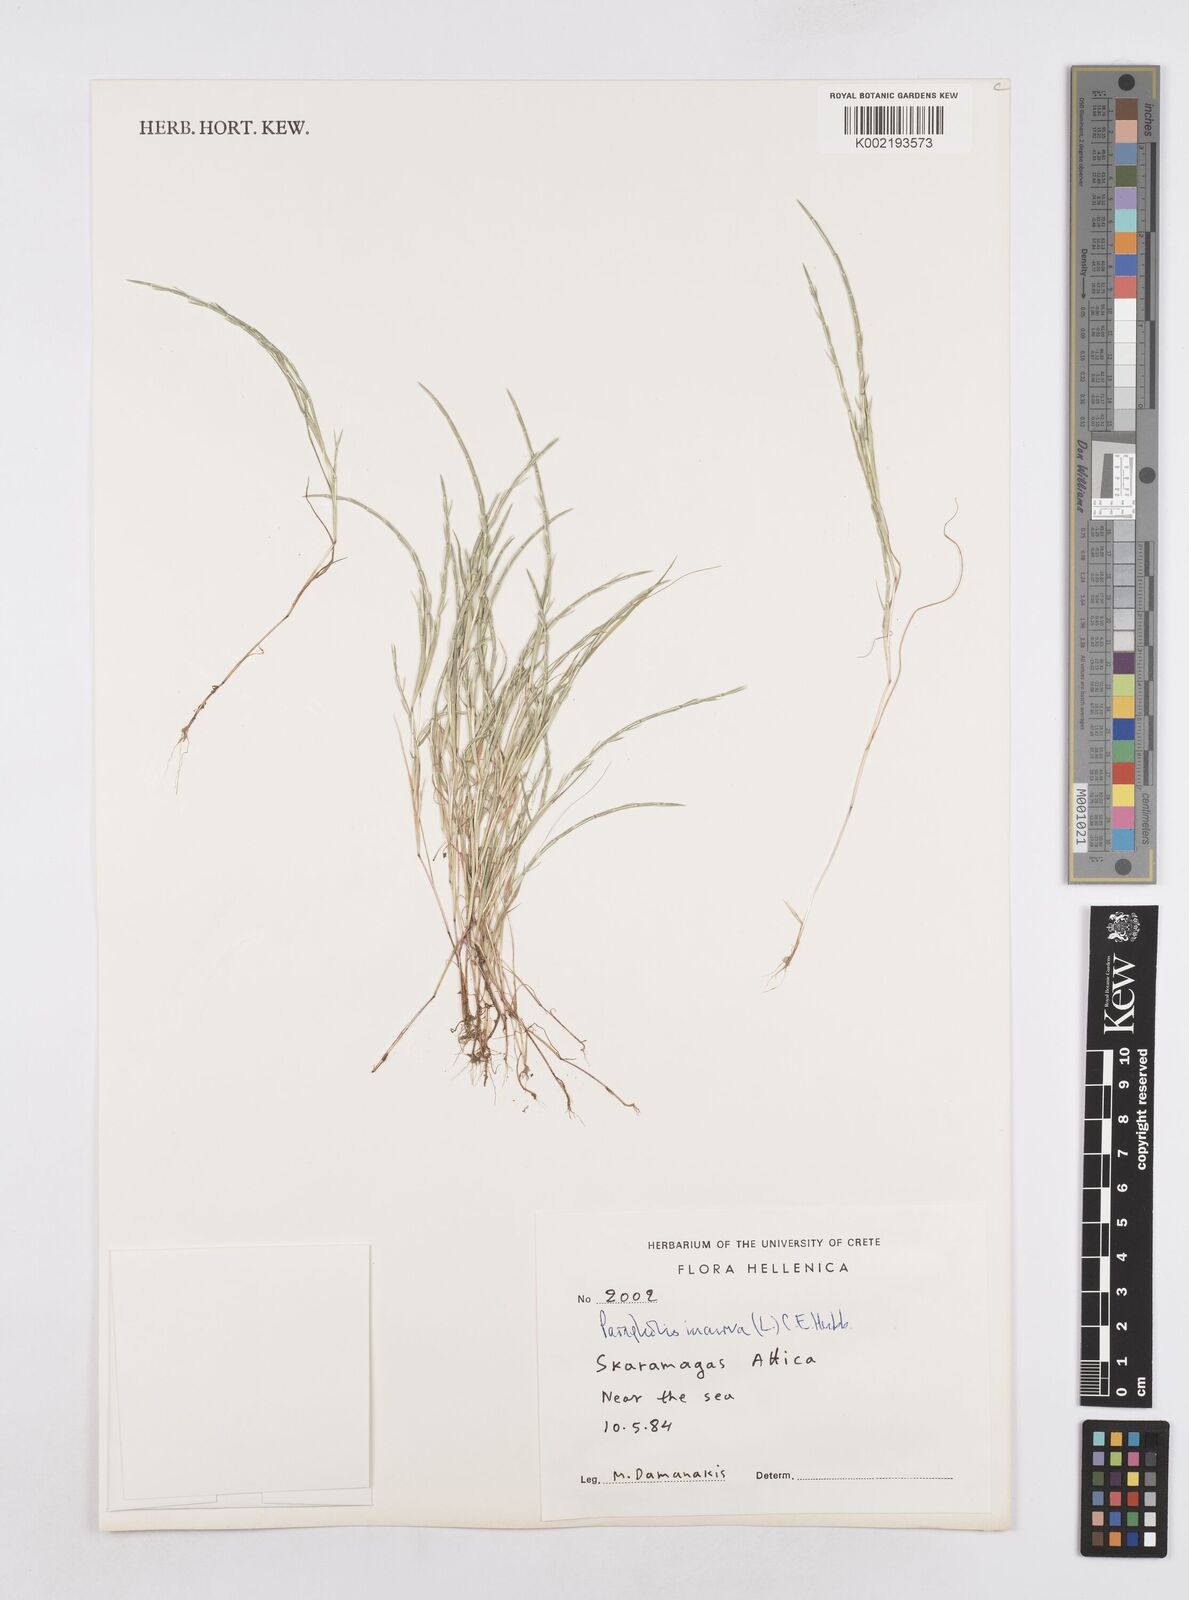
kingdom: Plantae
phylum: Tracheophyta
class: Liliopsida
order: Poales
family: Poaceae
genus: Parapholis
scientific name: Parapholis incurva
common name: Curved sicklegrass
